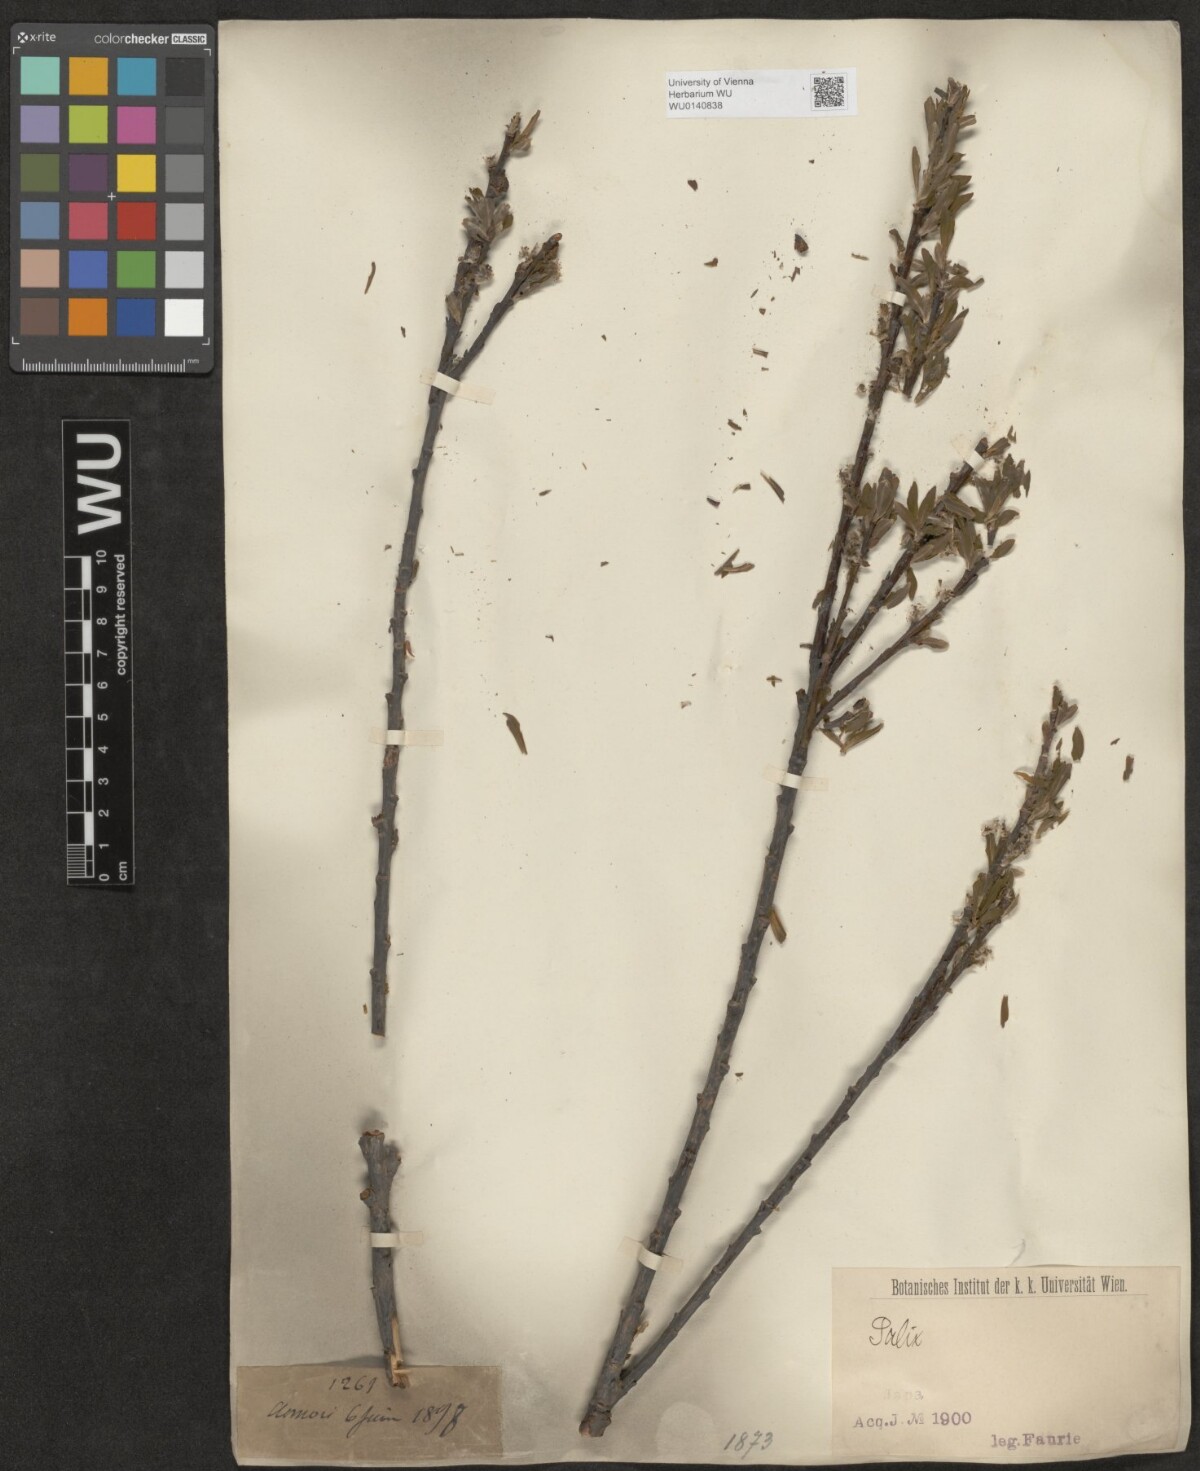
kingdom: Plantae
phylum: Tracheophyta
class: Magnoliopsida
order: Malpighiales
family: Salicaceae
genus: Salix
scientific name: Salix
